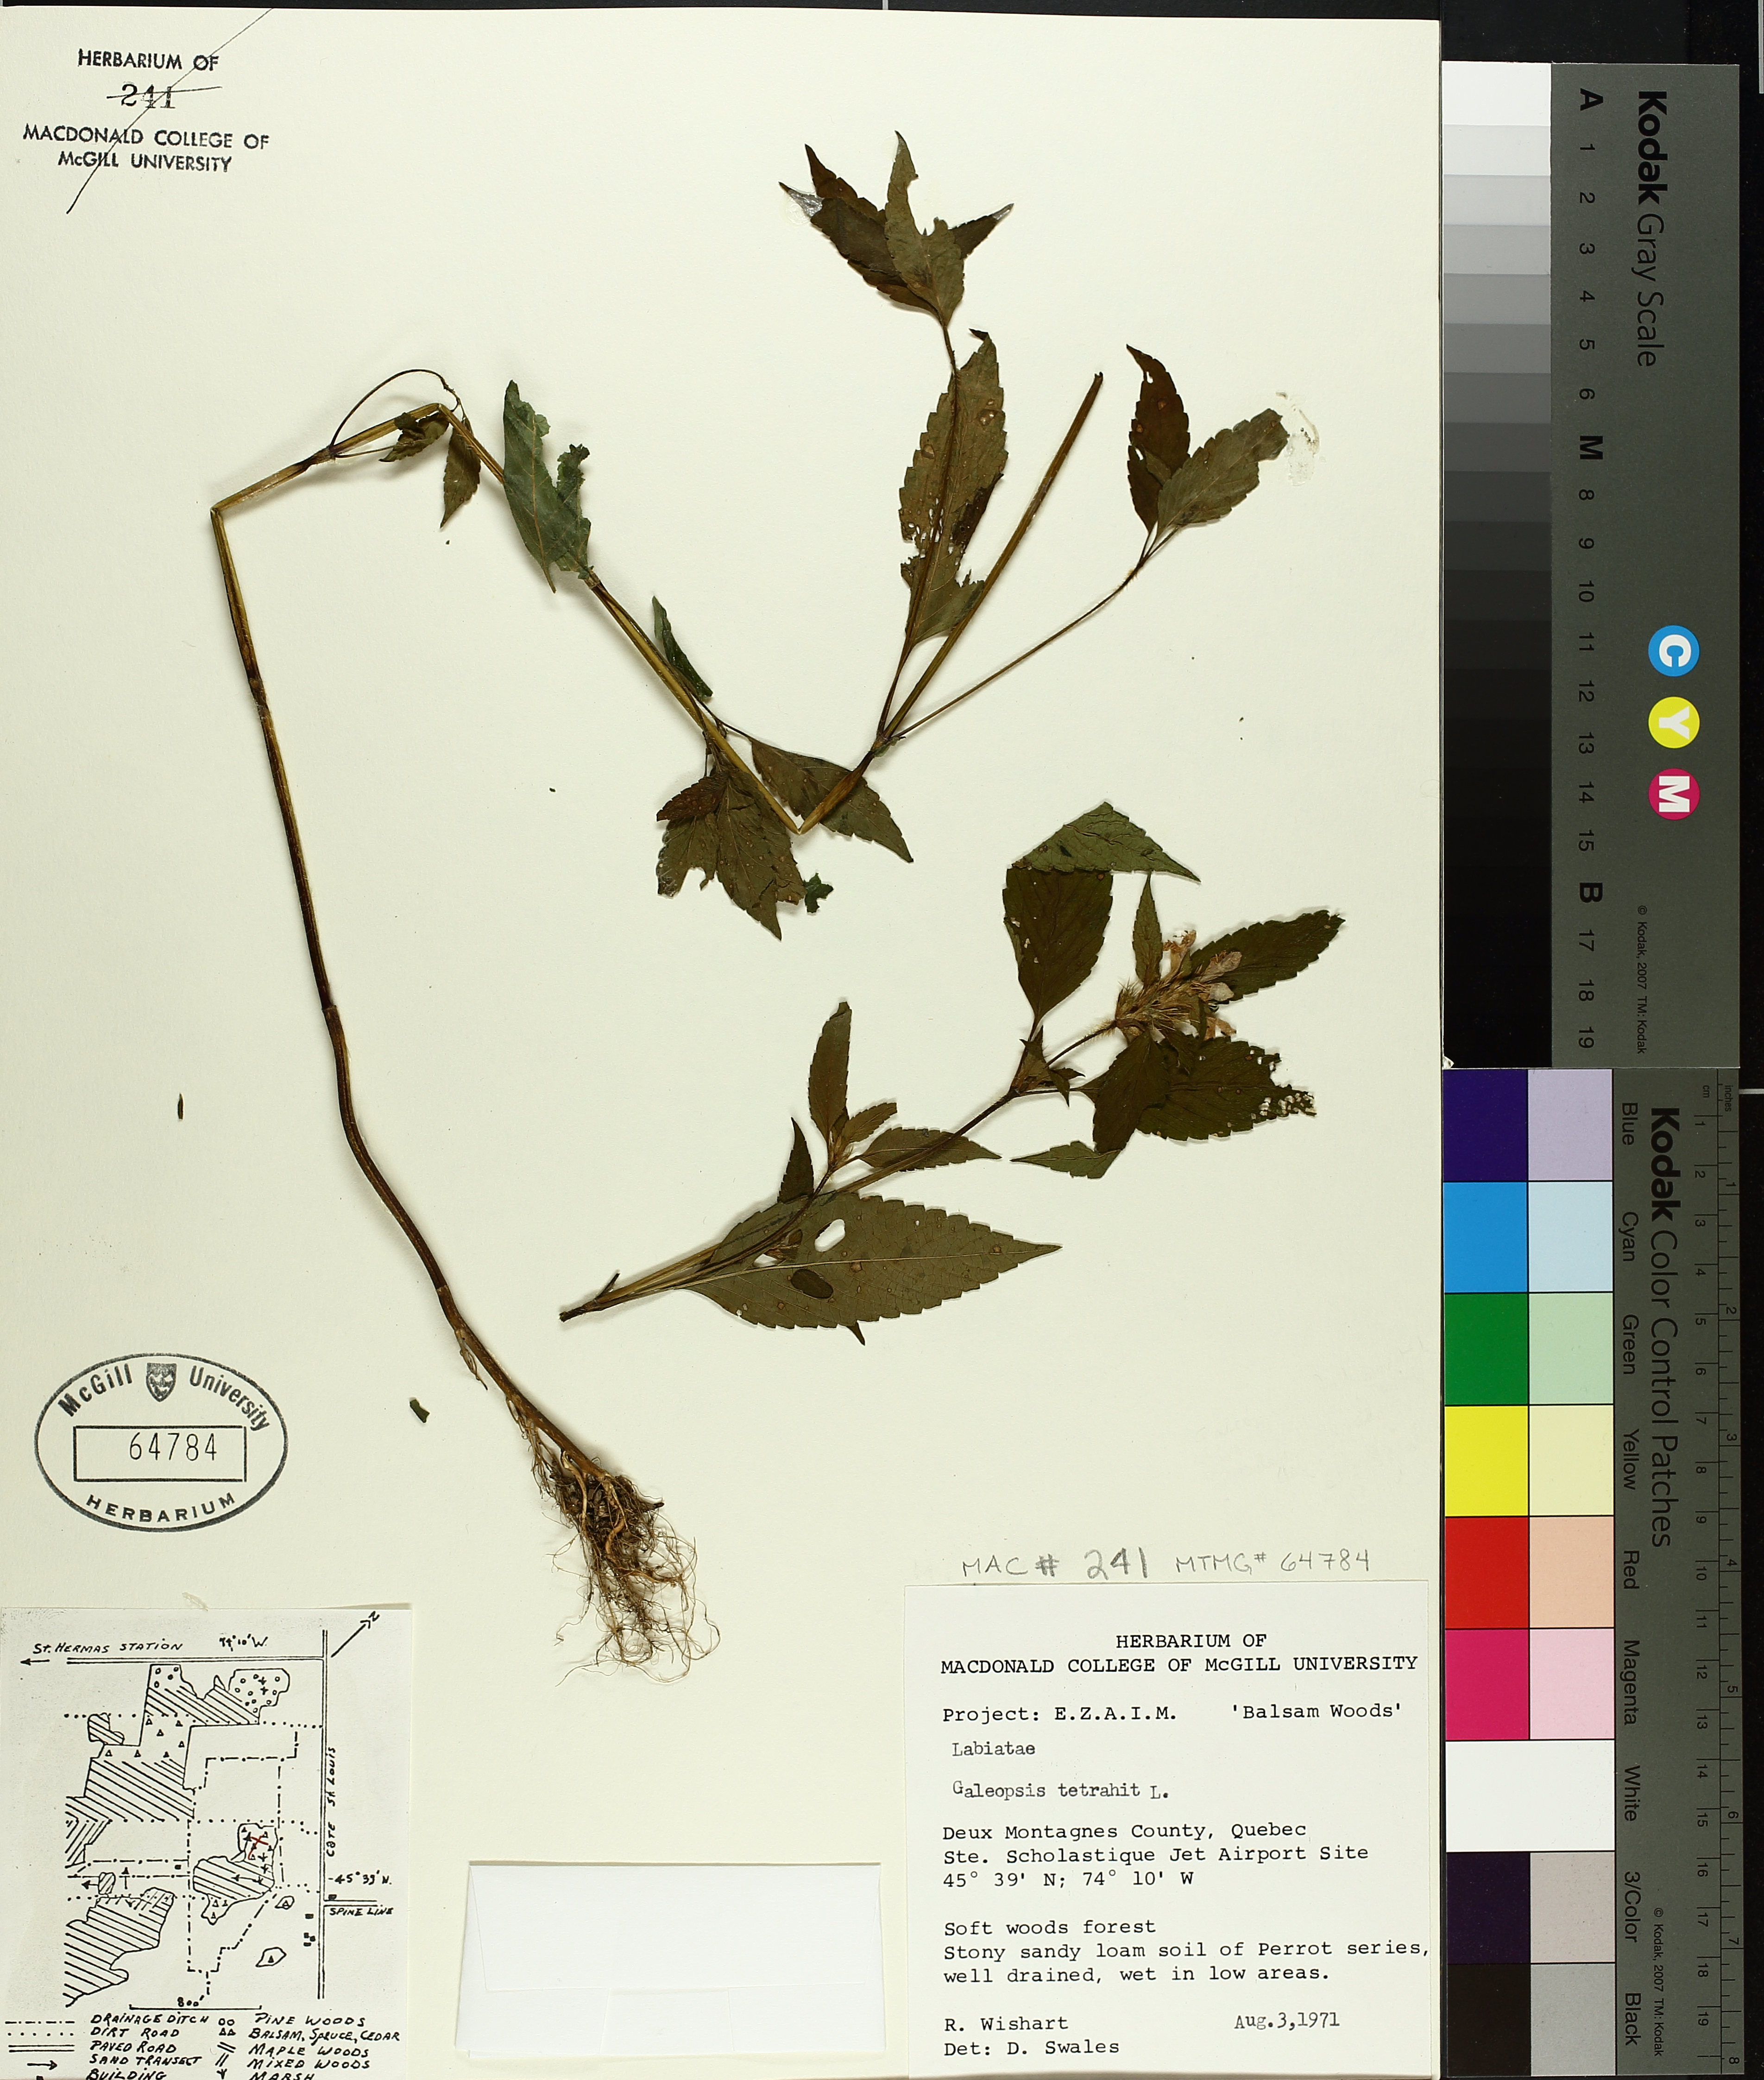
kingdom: Plantae
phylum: Tracheophyta
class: Magnoliopsida
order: Lamiales
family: Lamiaceae
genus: Galeopsis
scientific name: Galeopsis tetrahit
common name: Common hemp-nettle
